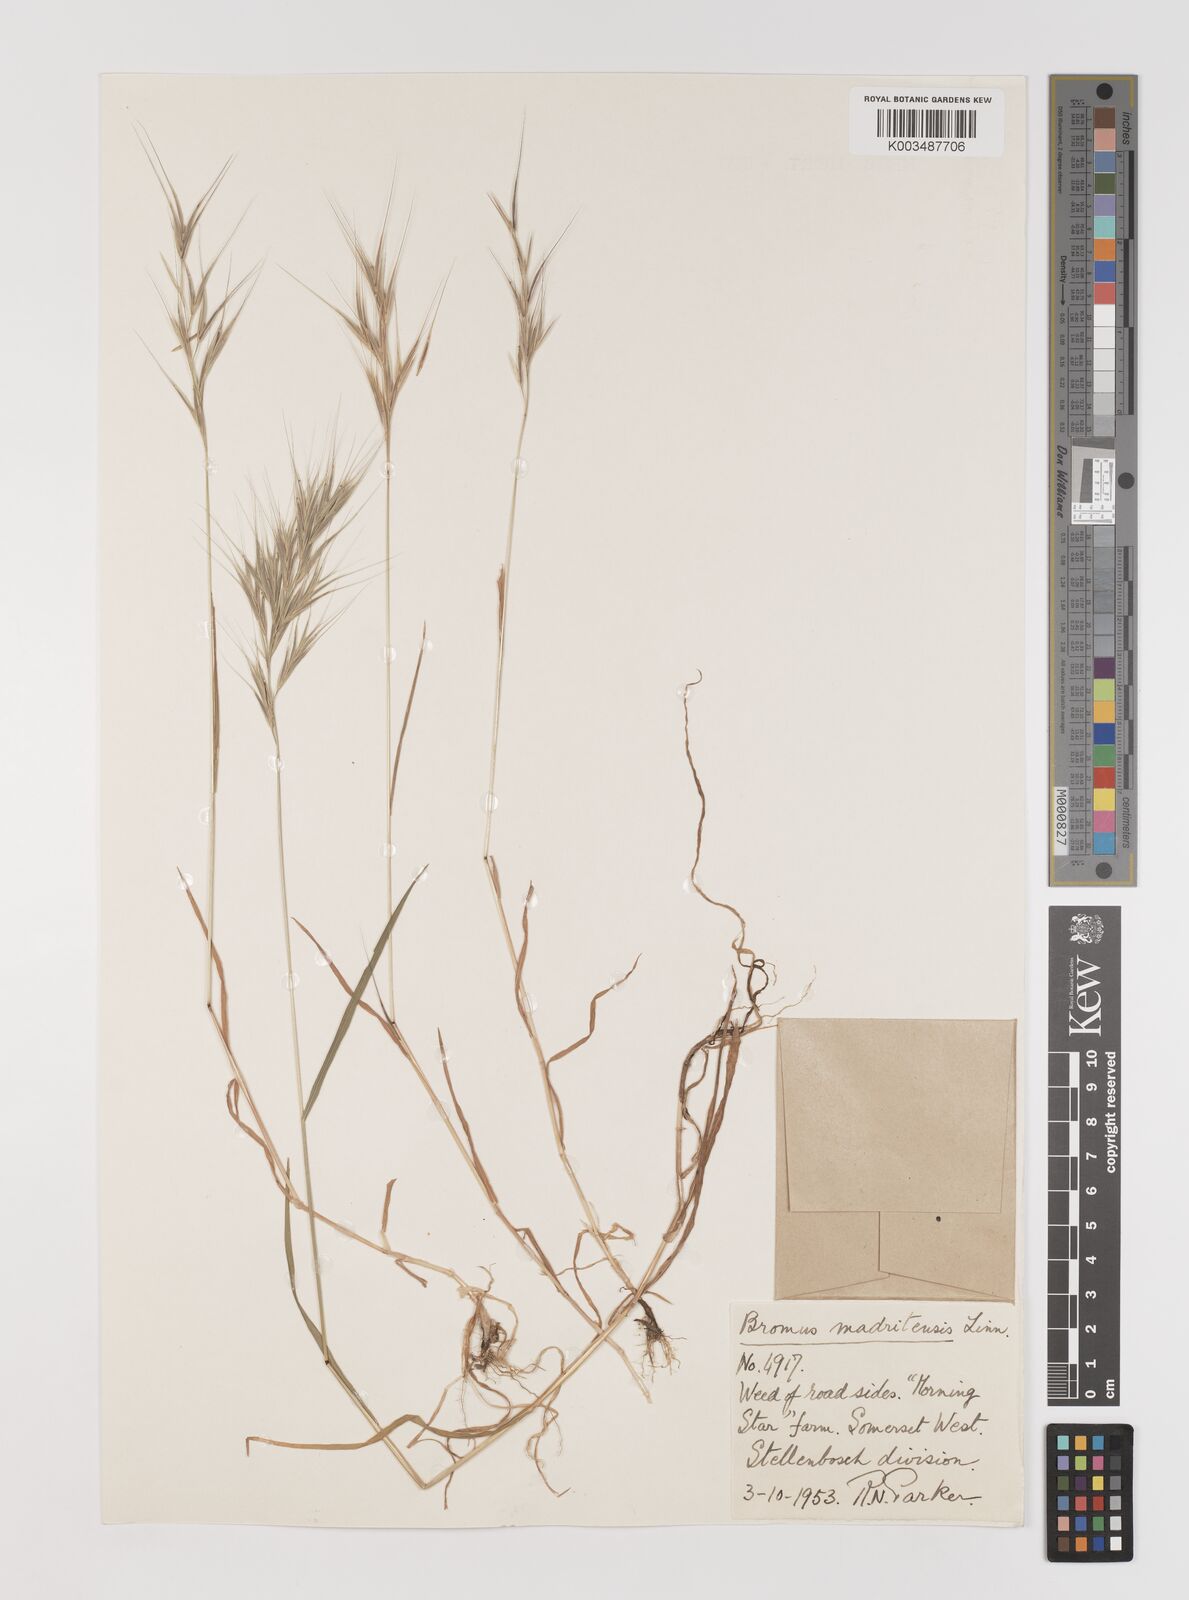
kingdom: Plantae
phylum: Tracheophyta
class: Liliopsida
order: Poales
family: Poaceae
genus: Bromus
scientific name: Bromus madritensis
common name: Compact brome
